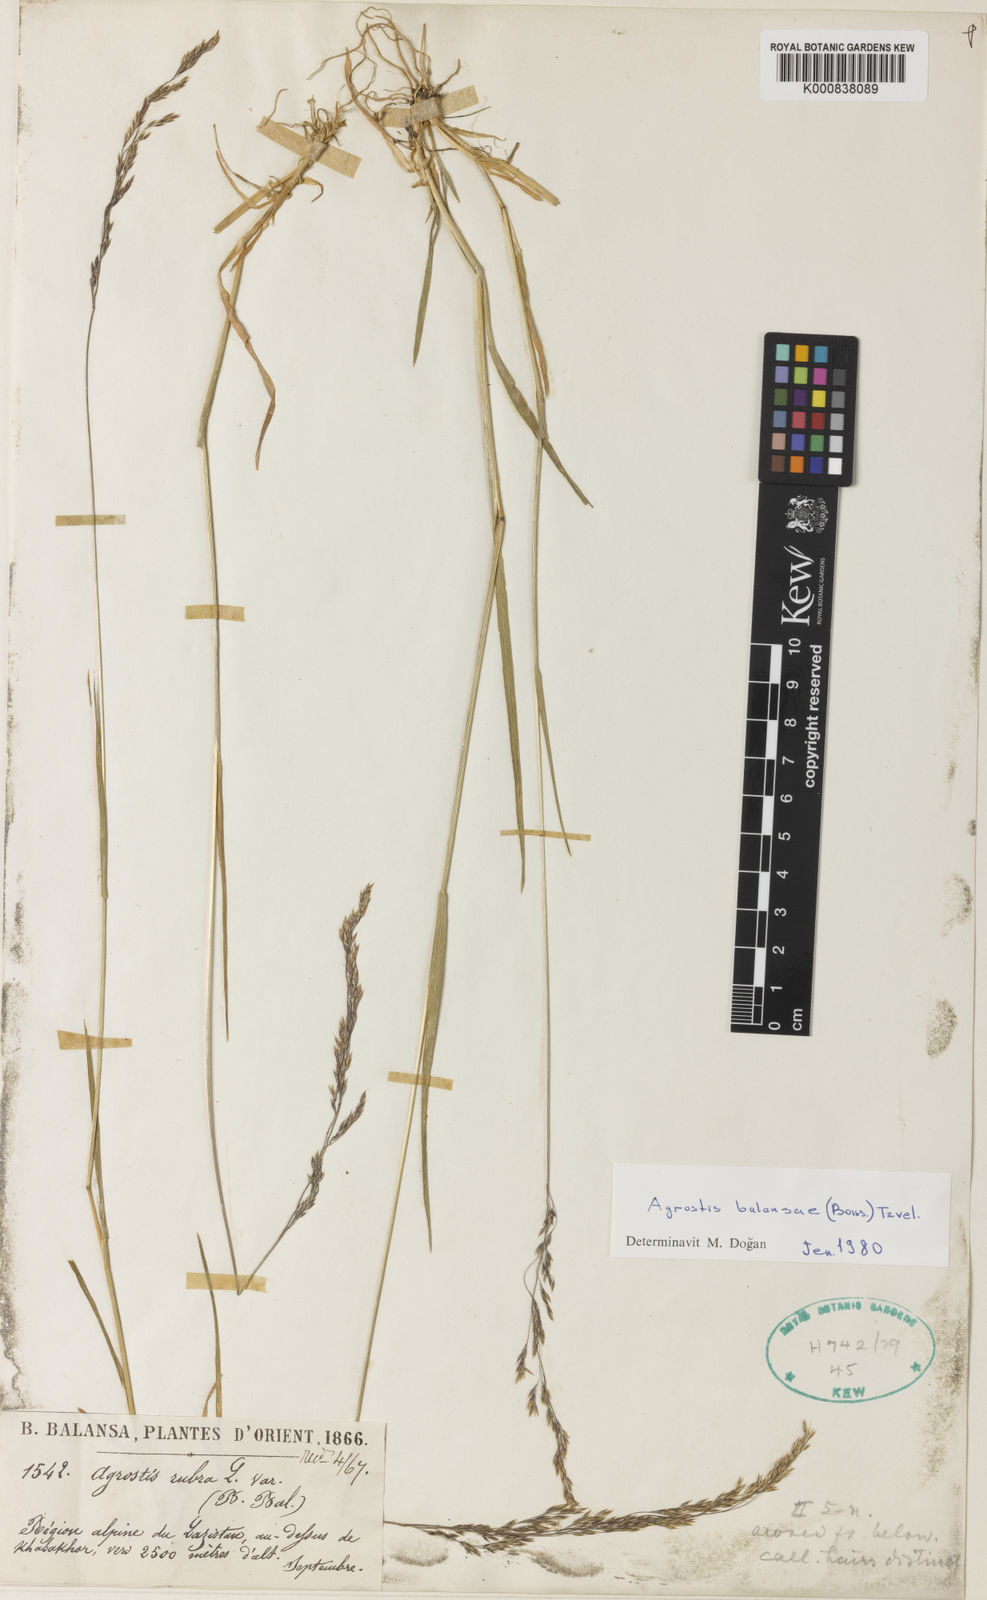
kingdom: Plantae
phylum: Tracheophyta
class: Liliopsida
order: Poales
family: Poaceae
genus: Agrostis
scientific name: Agrostis balansae
